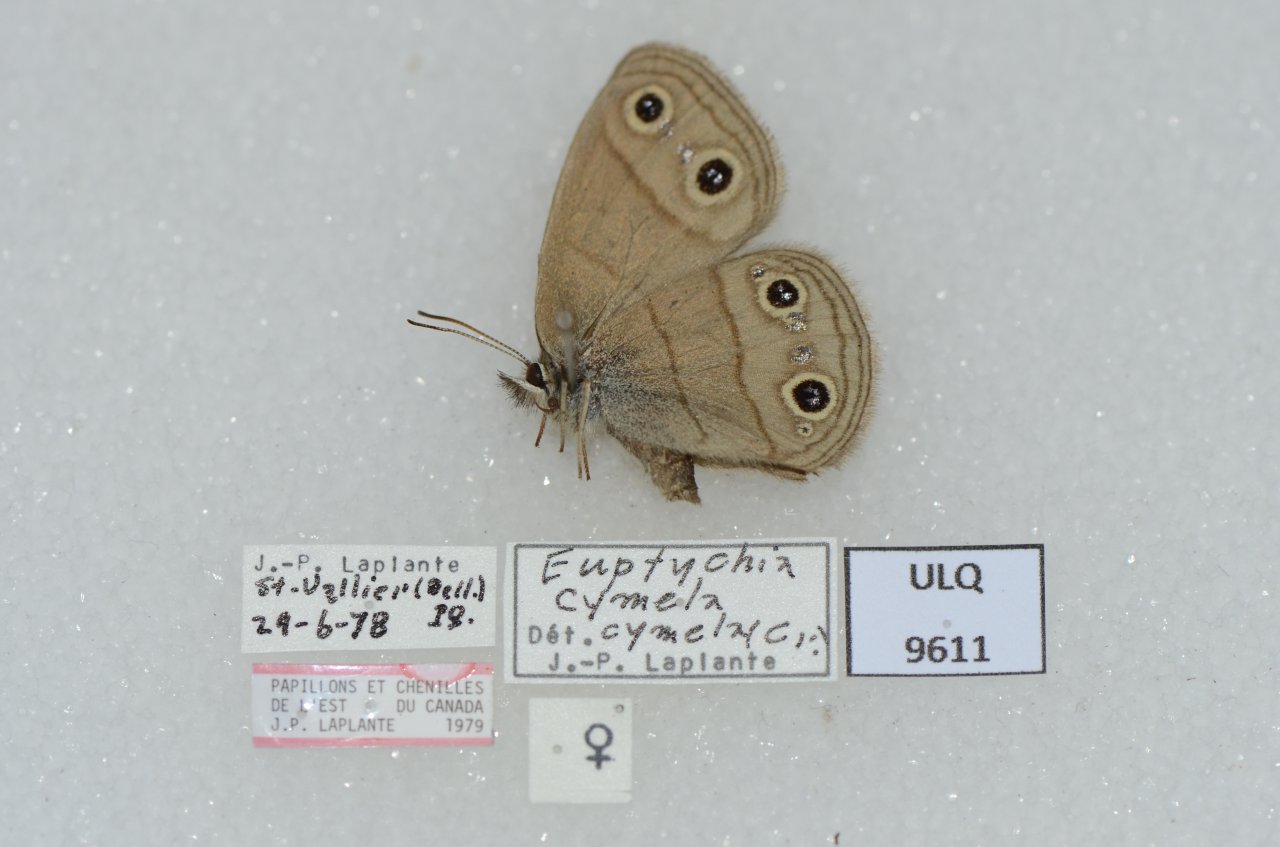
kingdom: Animalia
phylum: Arthropoda
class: Insecta
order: Lepidoptera
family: Nymphalidae
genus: Euptychia
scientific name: Euptychia cymela
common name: Little Wood Satyr
